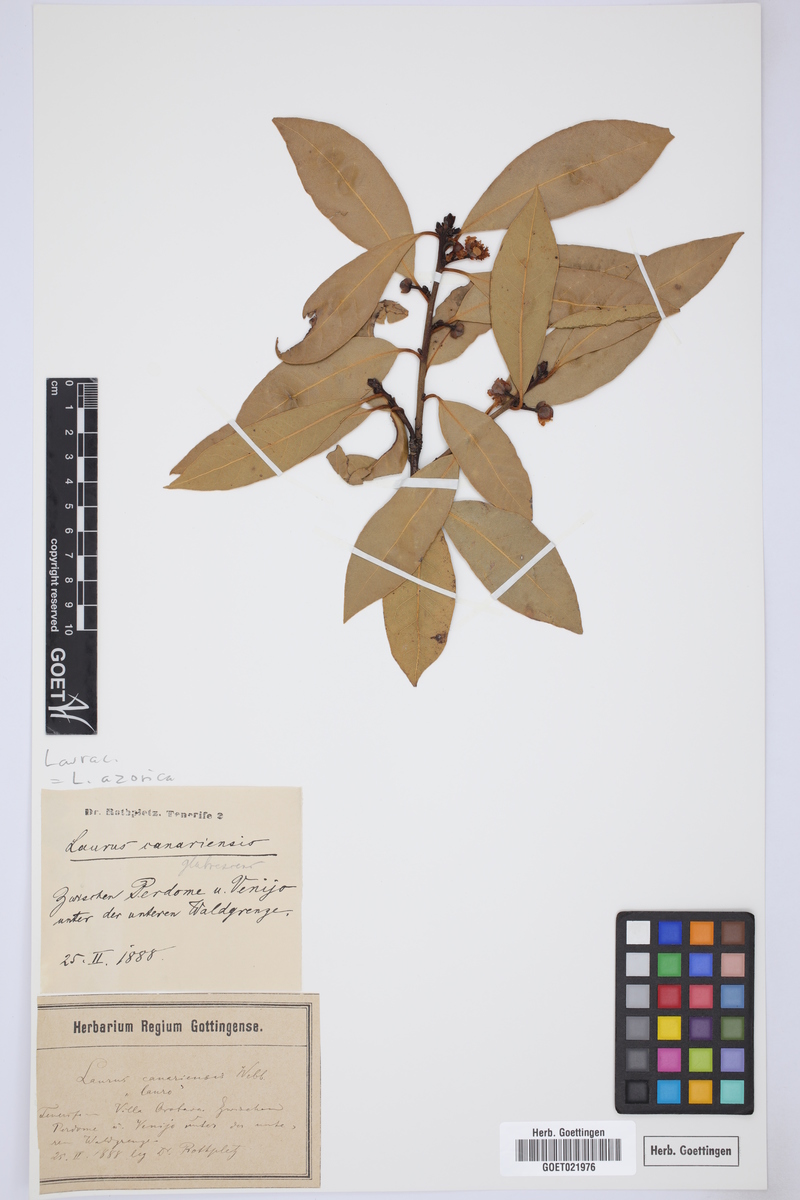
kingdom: Plantae
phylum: Tracheophyta
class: Magnoliopsida
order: Laurales
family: Lauraceae
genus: Laurus
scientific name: Laurus azorica
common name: Macaronesian laurel
